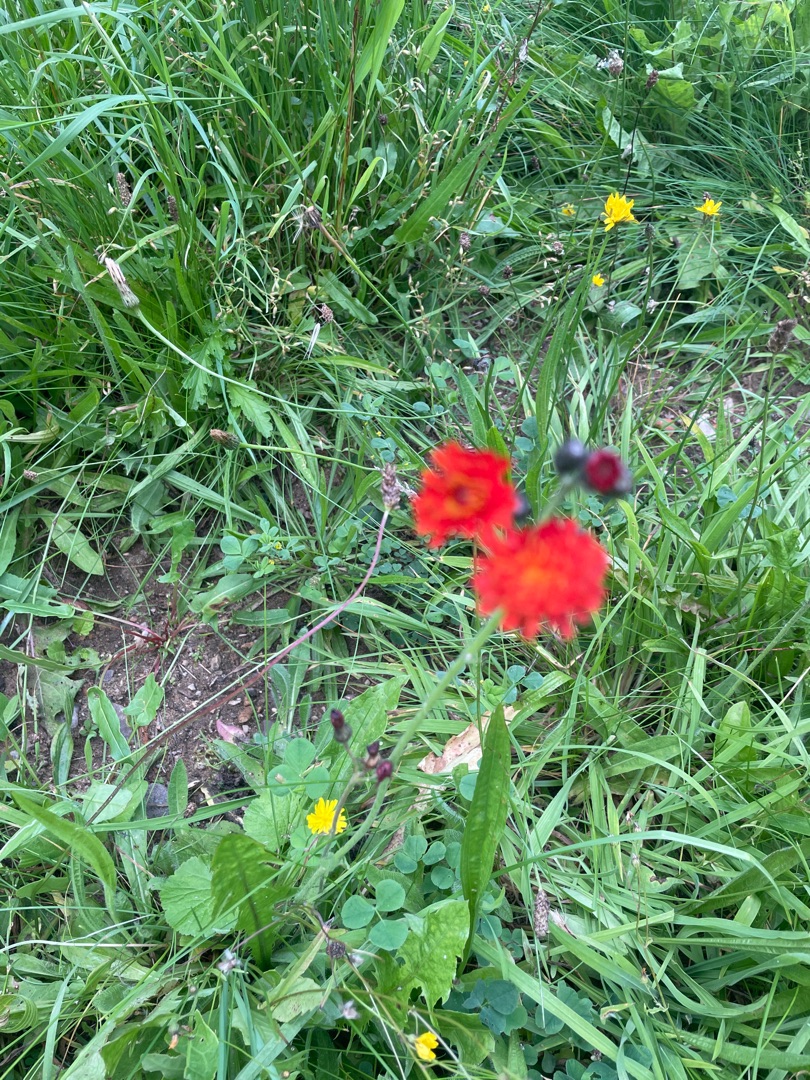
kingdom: Plantae
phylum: Tracheophyta
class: Magnoliopsida
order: Asterales
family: Asteraceae
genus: Pilosella
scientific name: Pilosella aurantiaca
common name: Pomerans-høgeurt
